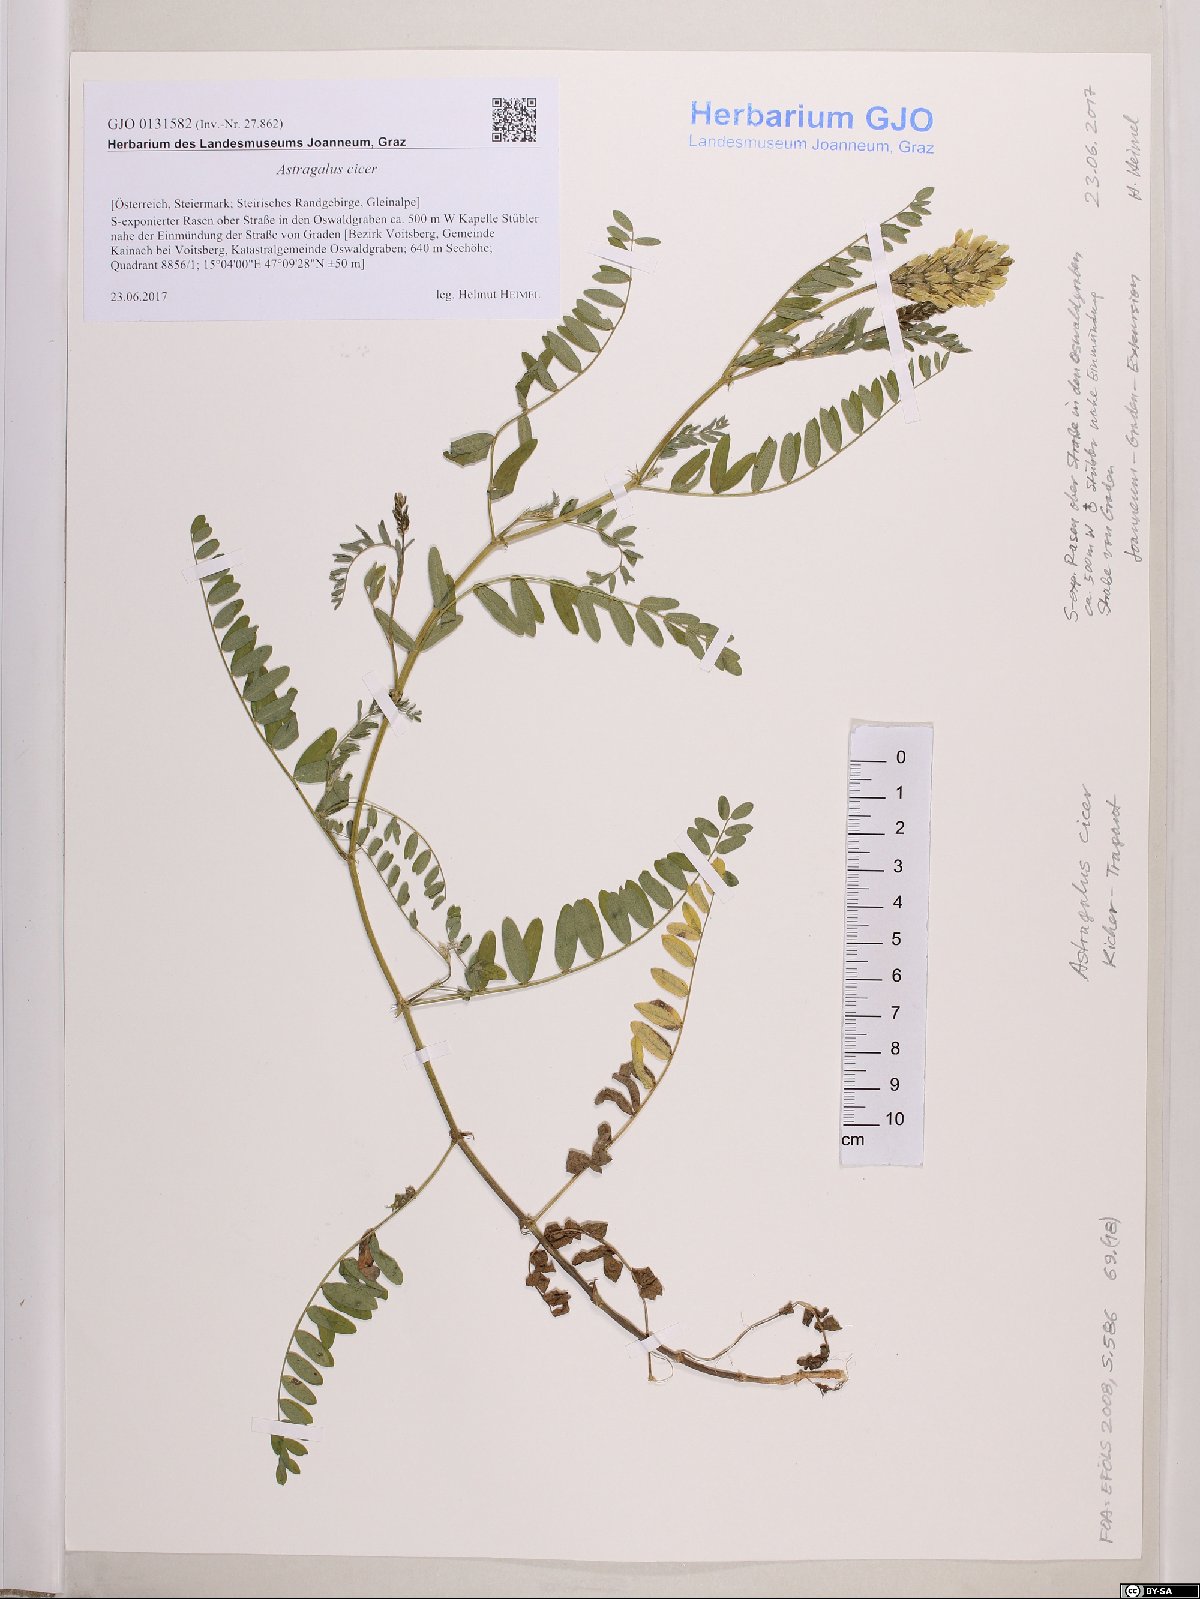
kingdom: Plantae
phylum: Tracheophyta
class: Magnoliopsida
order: Fabales
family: Fabaceae
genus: Astragalus
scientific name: Astragalus cicer
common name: Chick-pea milk-vetch
